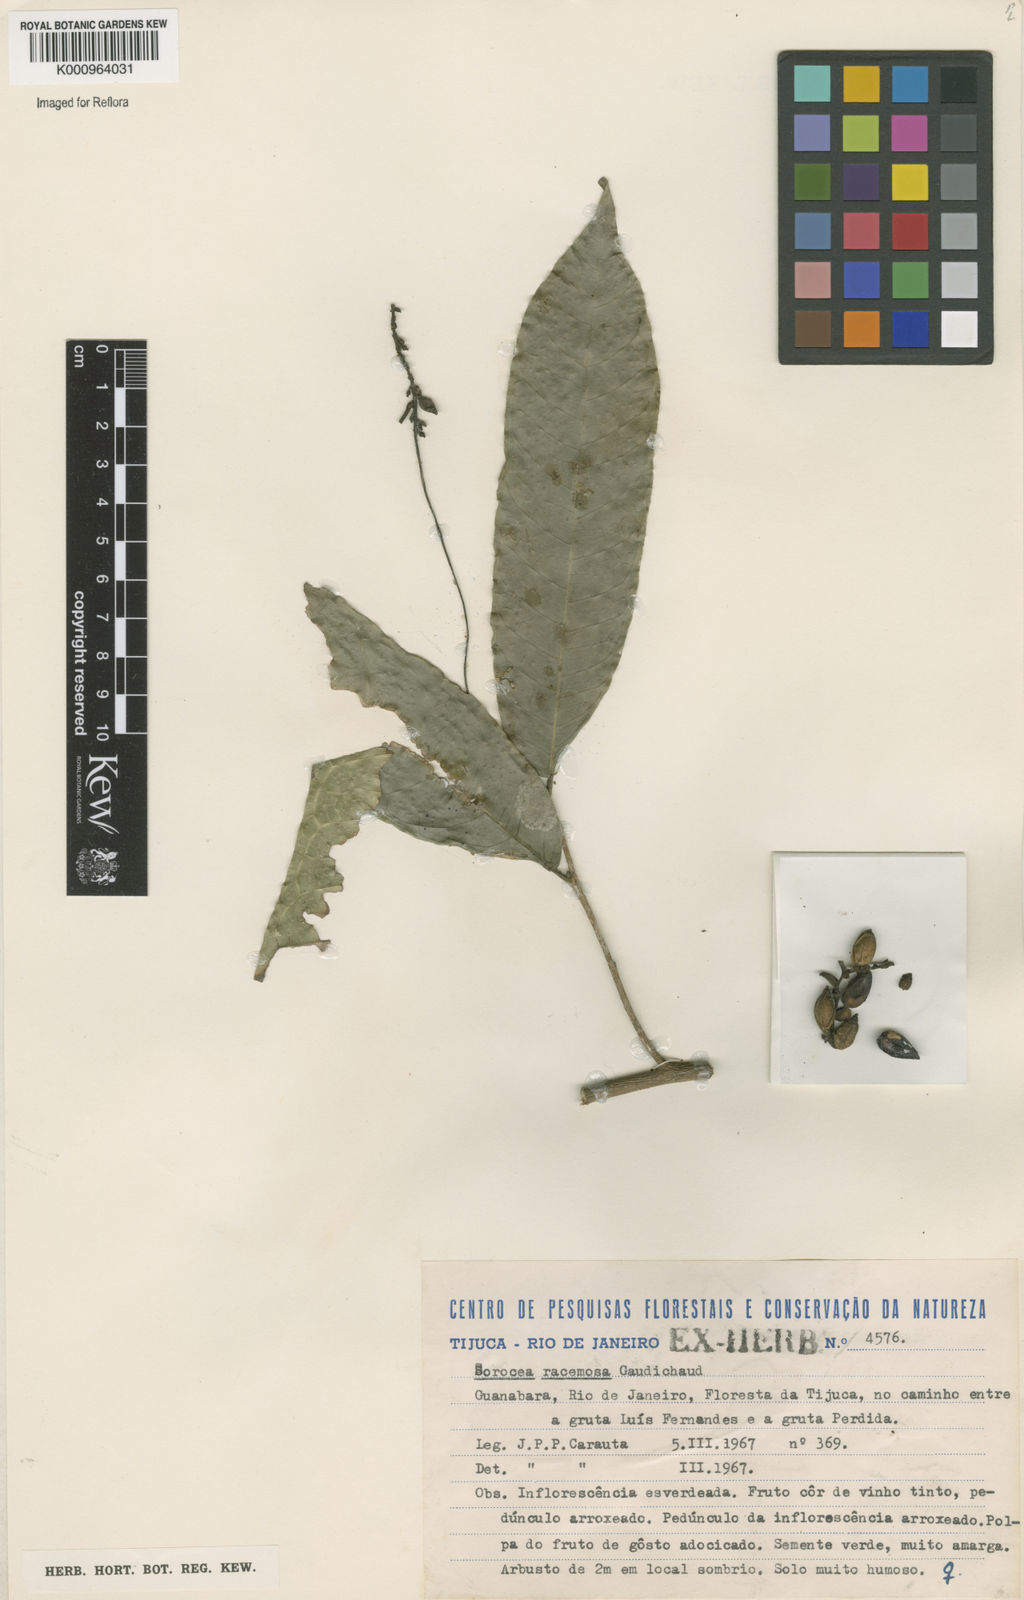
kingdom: Plantae
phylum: Tracheophyta
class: Magnoliopsida
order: Rosales
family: Moraceae
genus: Sorocea
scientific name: Sorocea hilarii
